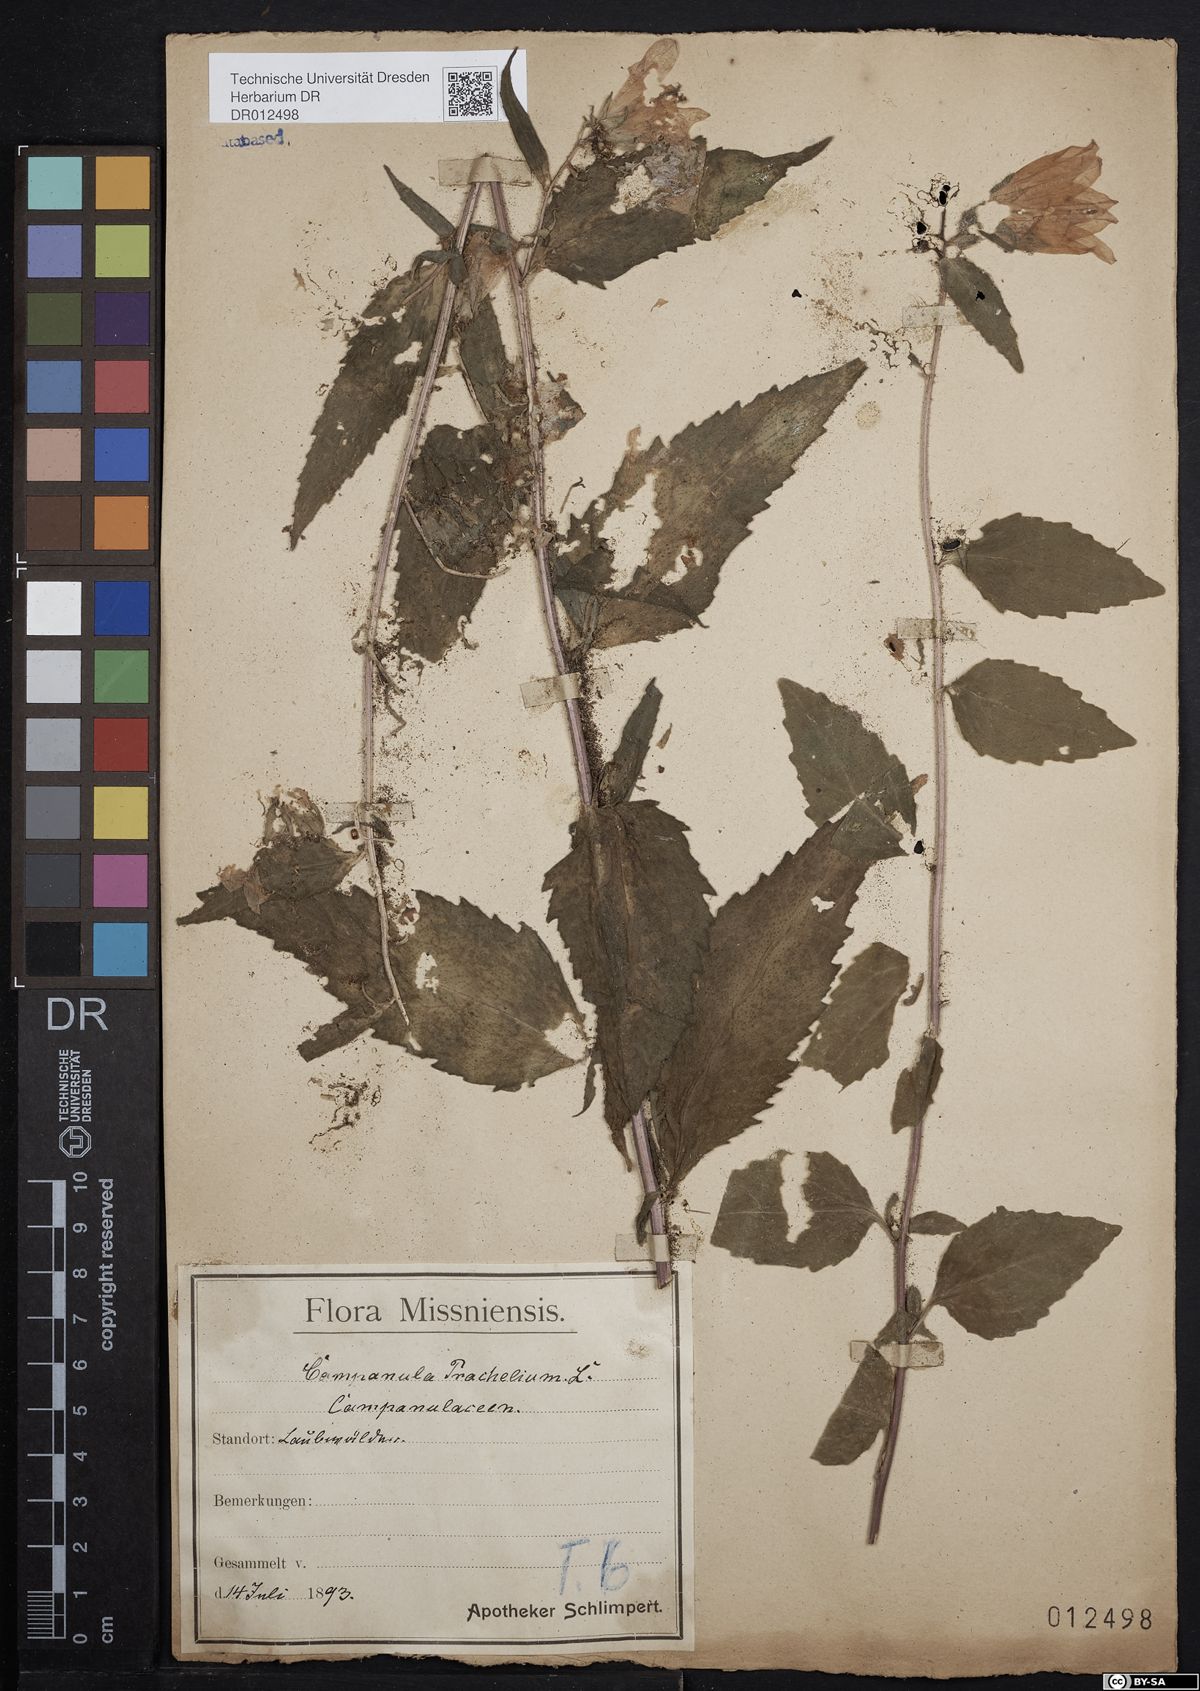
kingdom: Plantae
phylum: Tracheophyta
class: Magnoliopsida
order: Asterales
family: Campanulaceae
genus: Campanula
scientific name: Campanula trachelium
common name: Nettle-leaved bellflower
